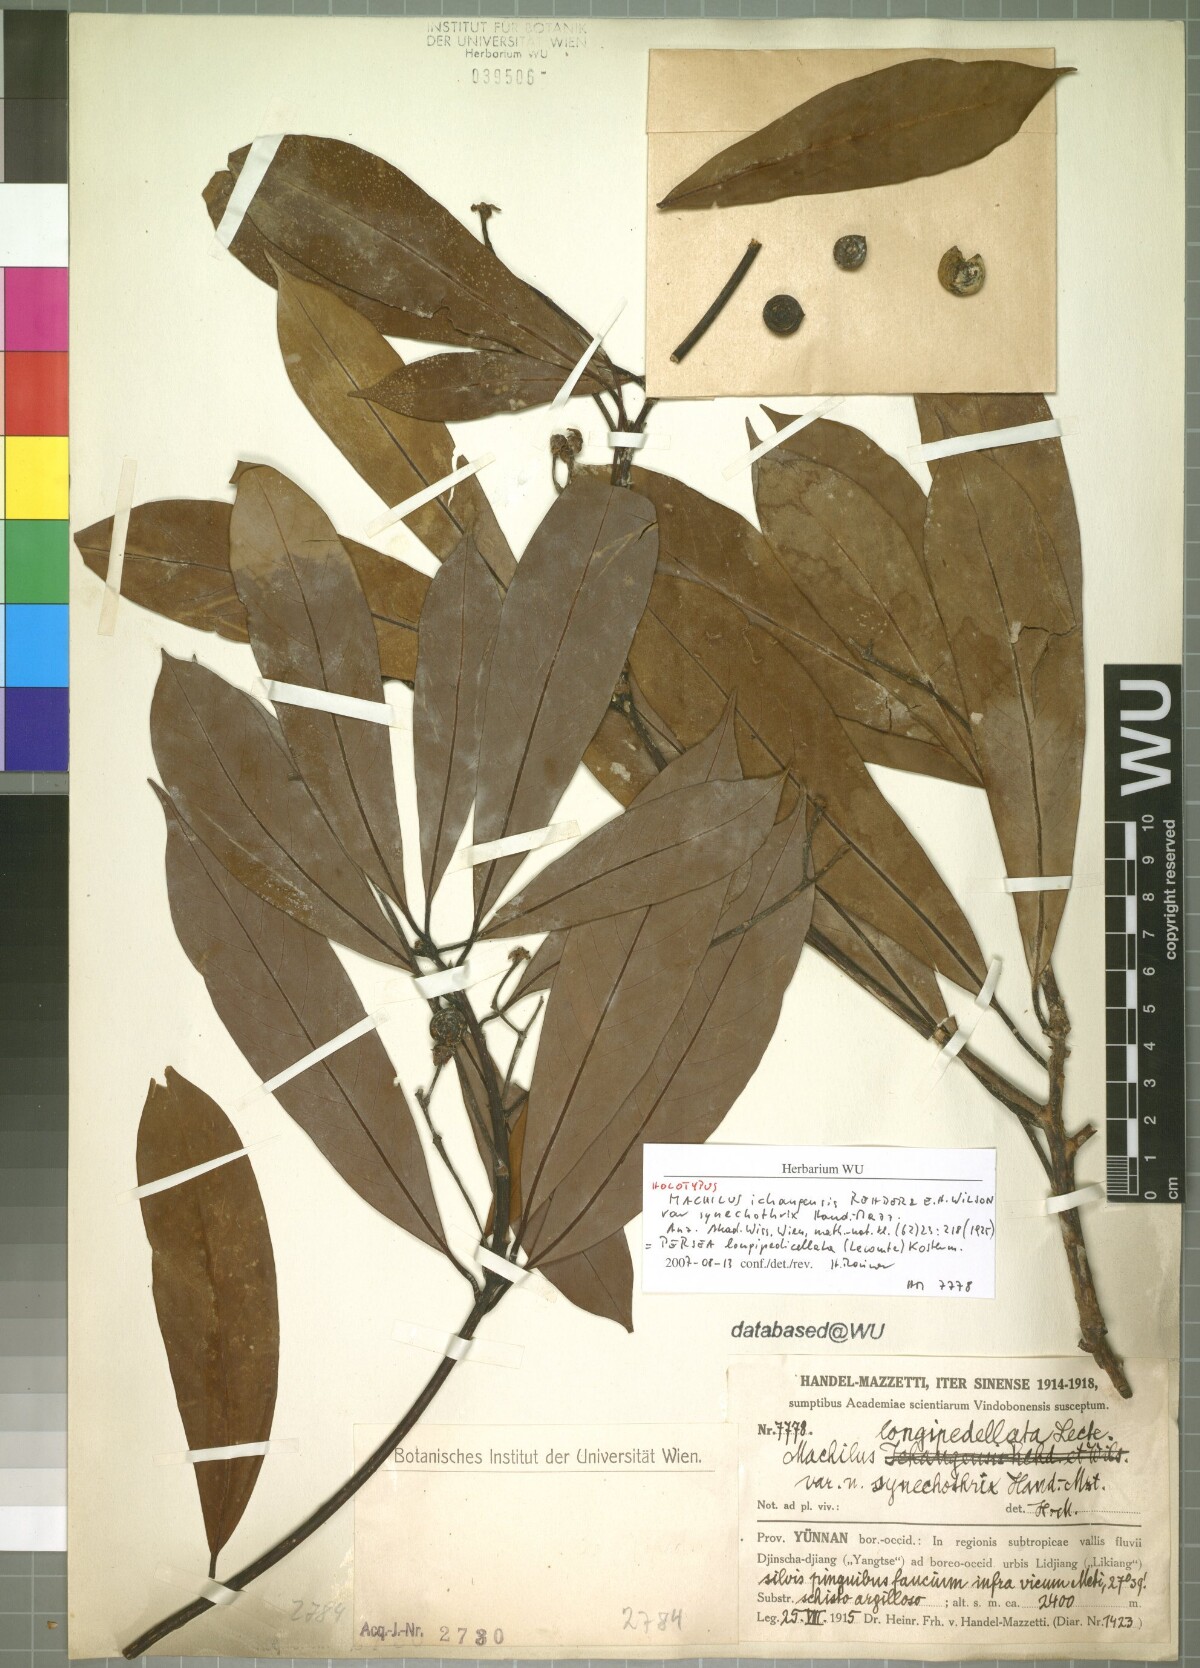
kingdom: Plantae
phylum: Tracheophyta
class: Magnoliopsida
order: Laurales
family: Lauraceae
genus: Machilus
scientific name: Machilus yunnanensis
